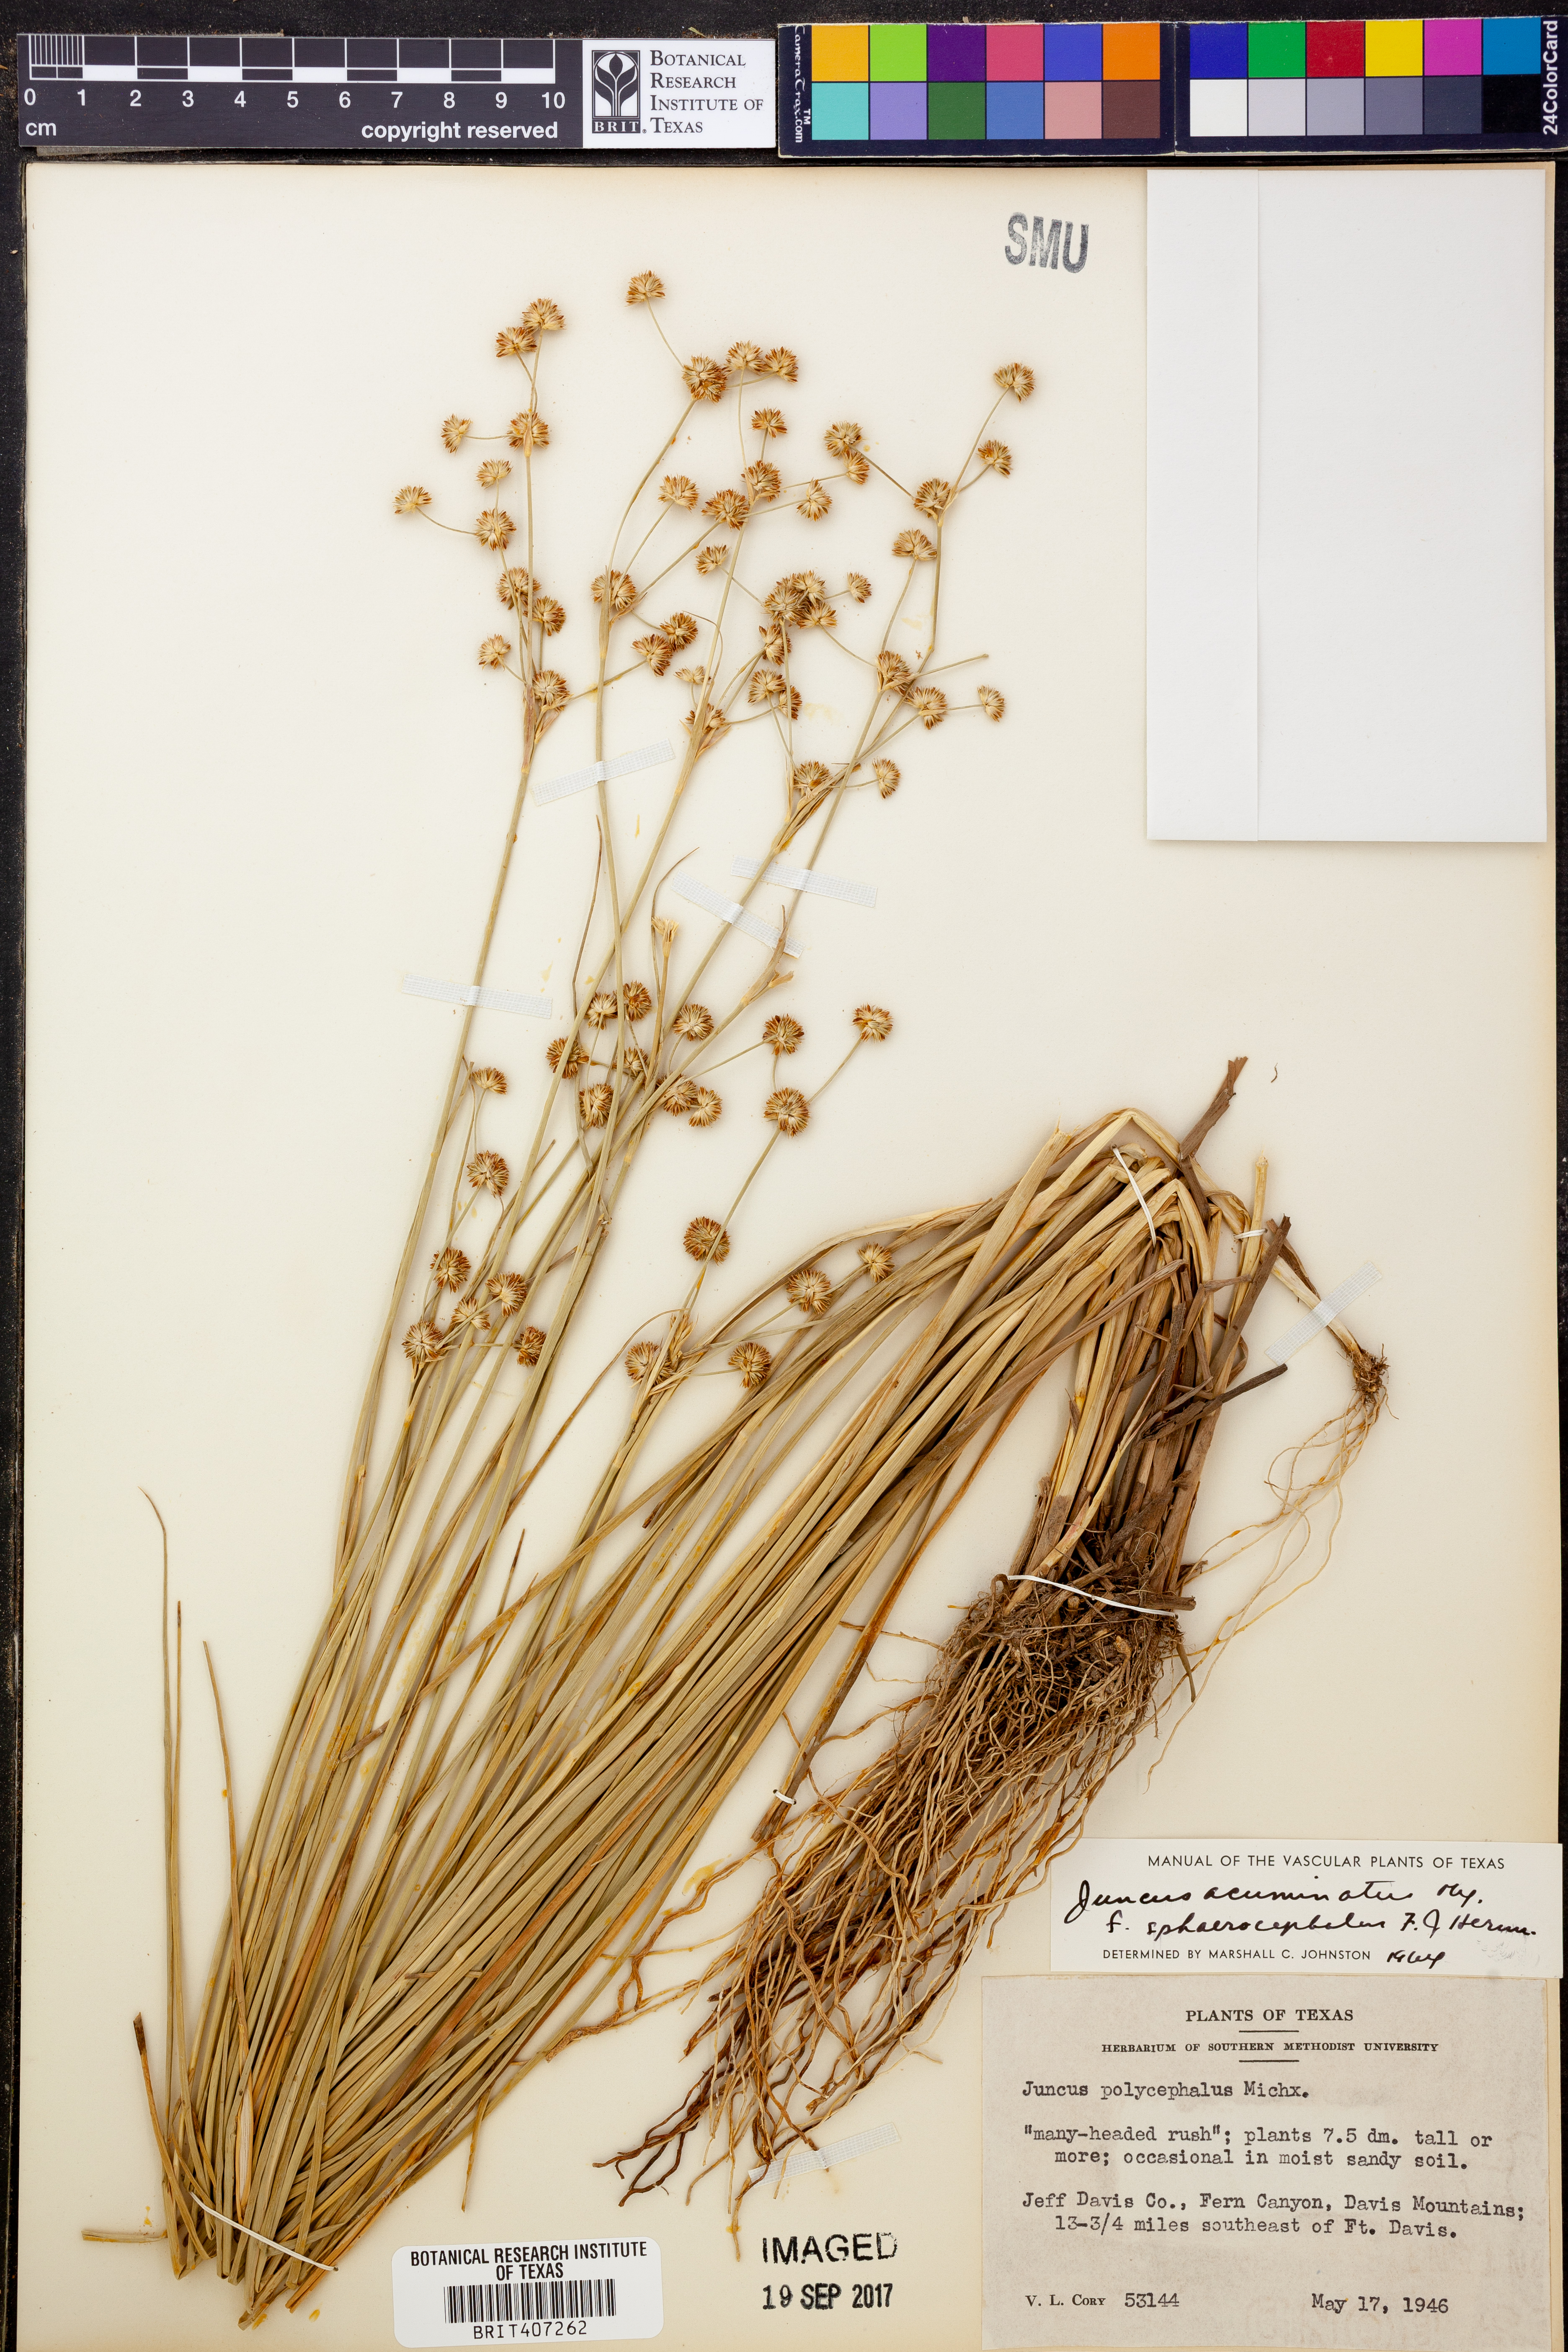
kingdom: Plantae
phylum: Tracheophyta
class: Liliopsida
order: Poales
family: Juncaceae
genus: Juncus
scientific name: Juncus polycephalus
